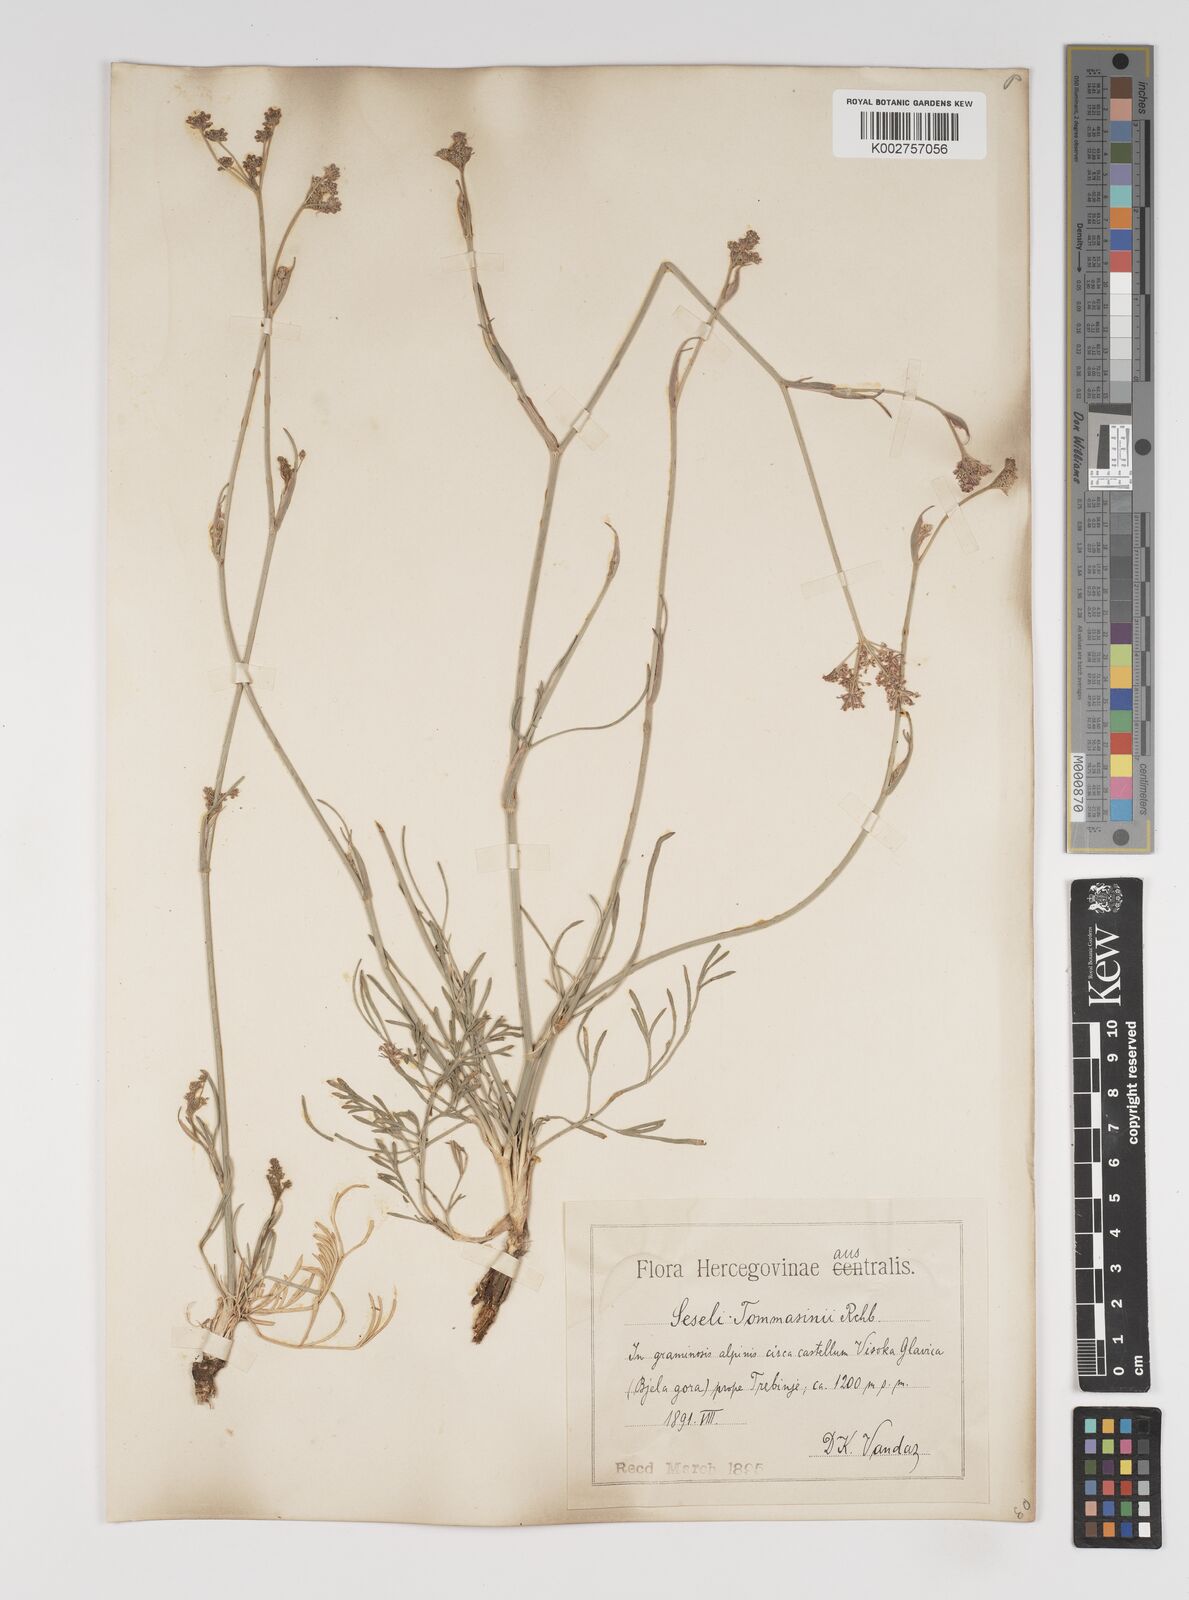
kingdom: Plantae
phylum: Tracheophyta
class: Magnoliopsida
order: Apiales
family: Apiaceae
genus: Seseli
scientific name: Seseli montanum
